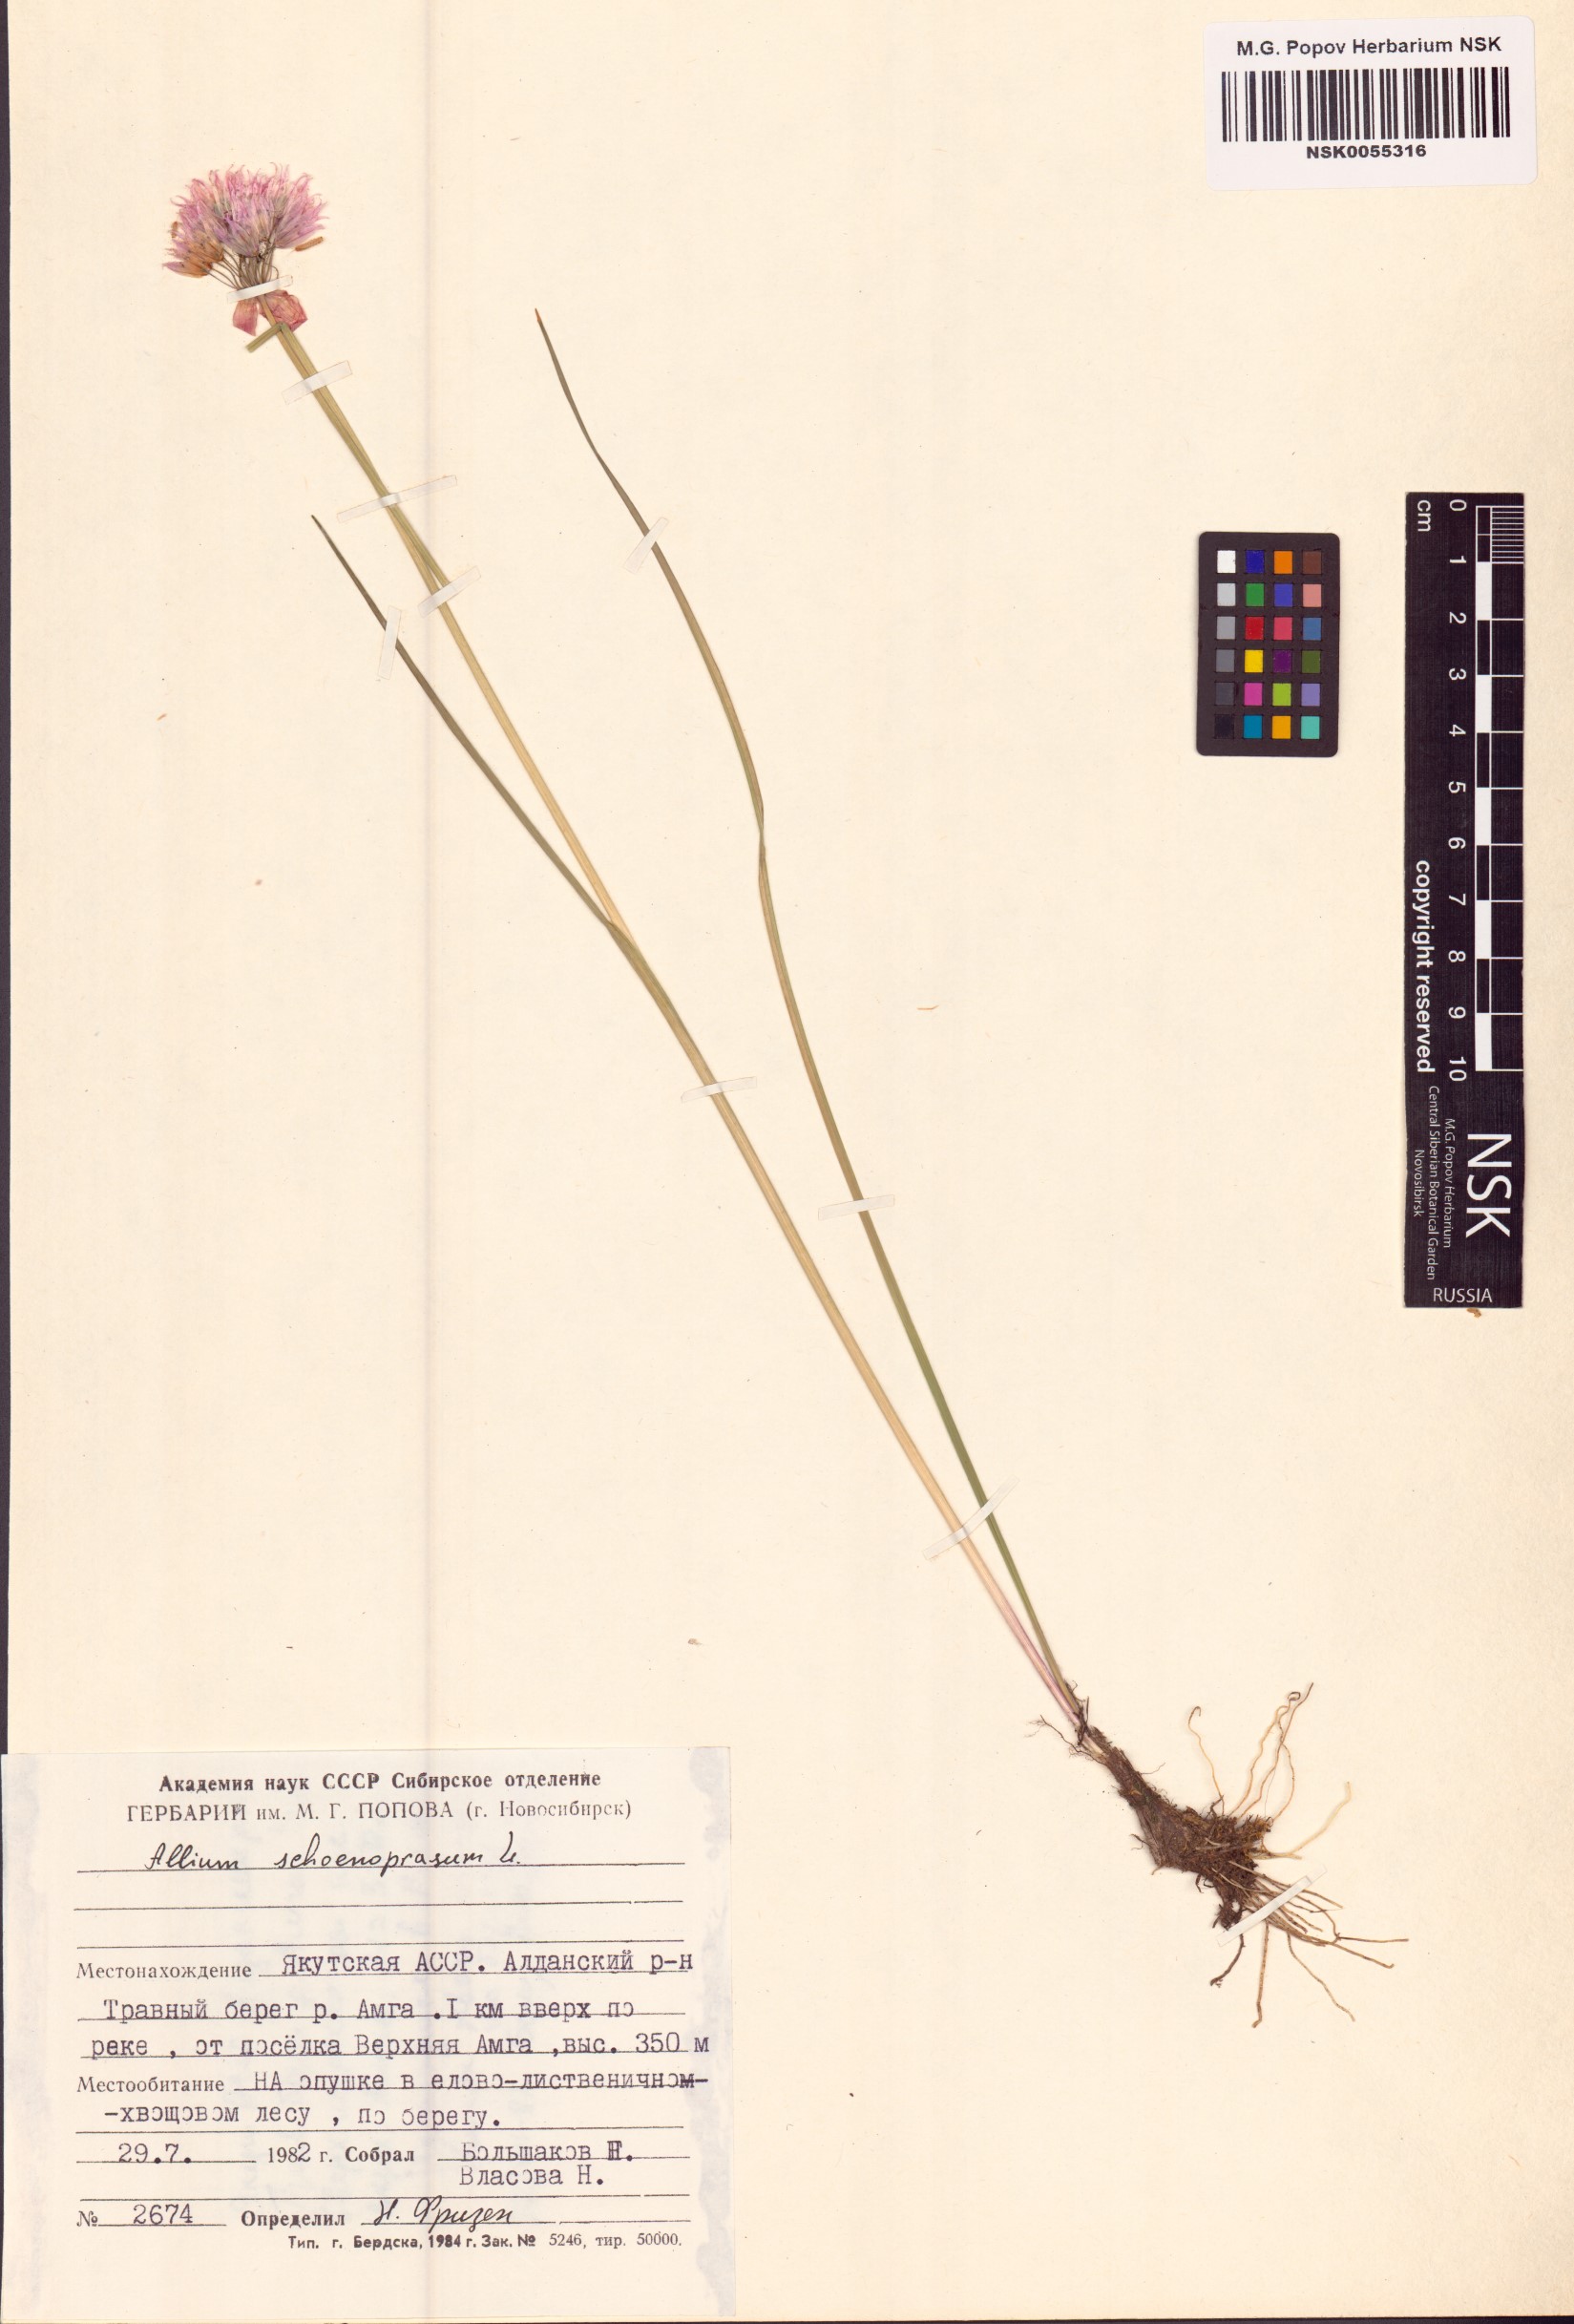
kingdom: Plantae
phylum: Tracheophyta
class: Liliopsida
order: Asparagales
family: Amaryllidaceae
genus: Allium
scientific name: Allium schoenoprasum
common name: Chives
